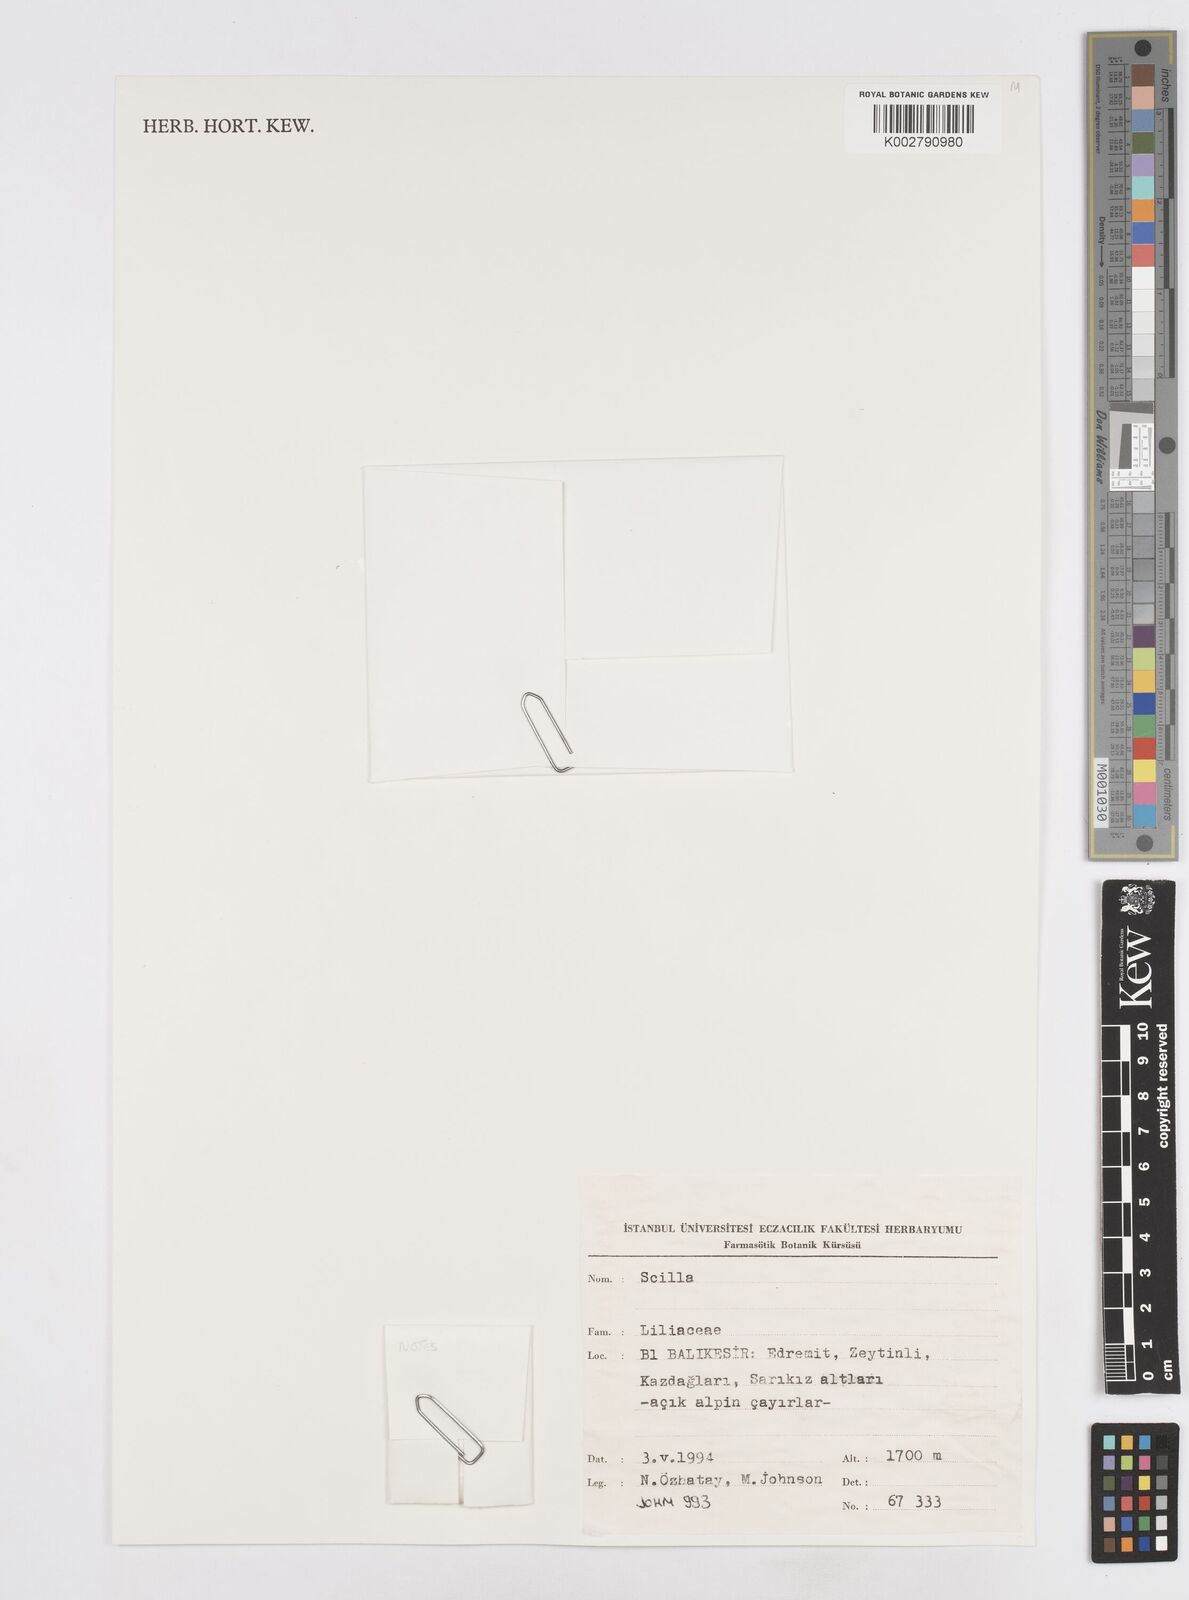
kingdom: Plantae
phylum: Tracheophyta
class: Liliopsida
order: Asparagales
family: Asparagaceae
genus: Scilla
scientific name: Scilla
